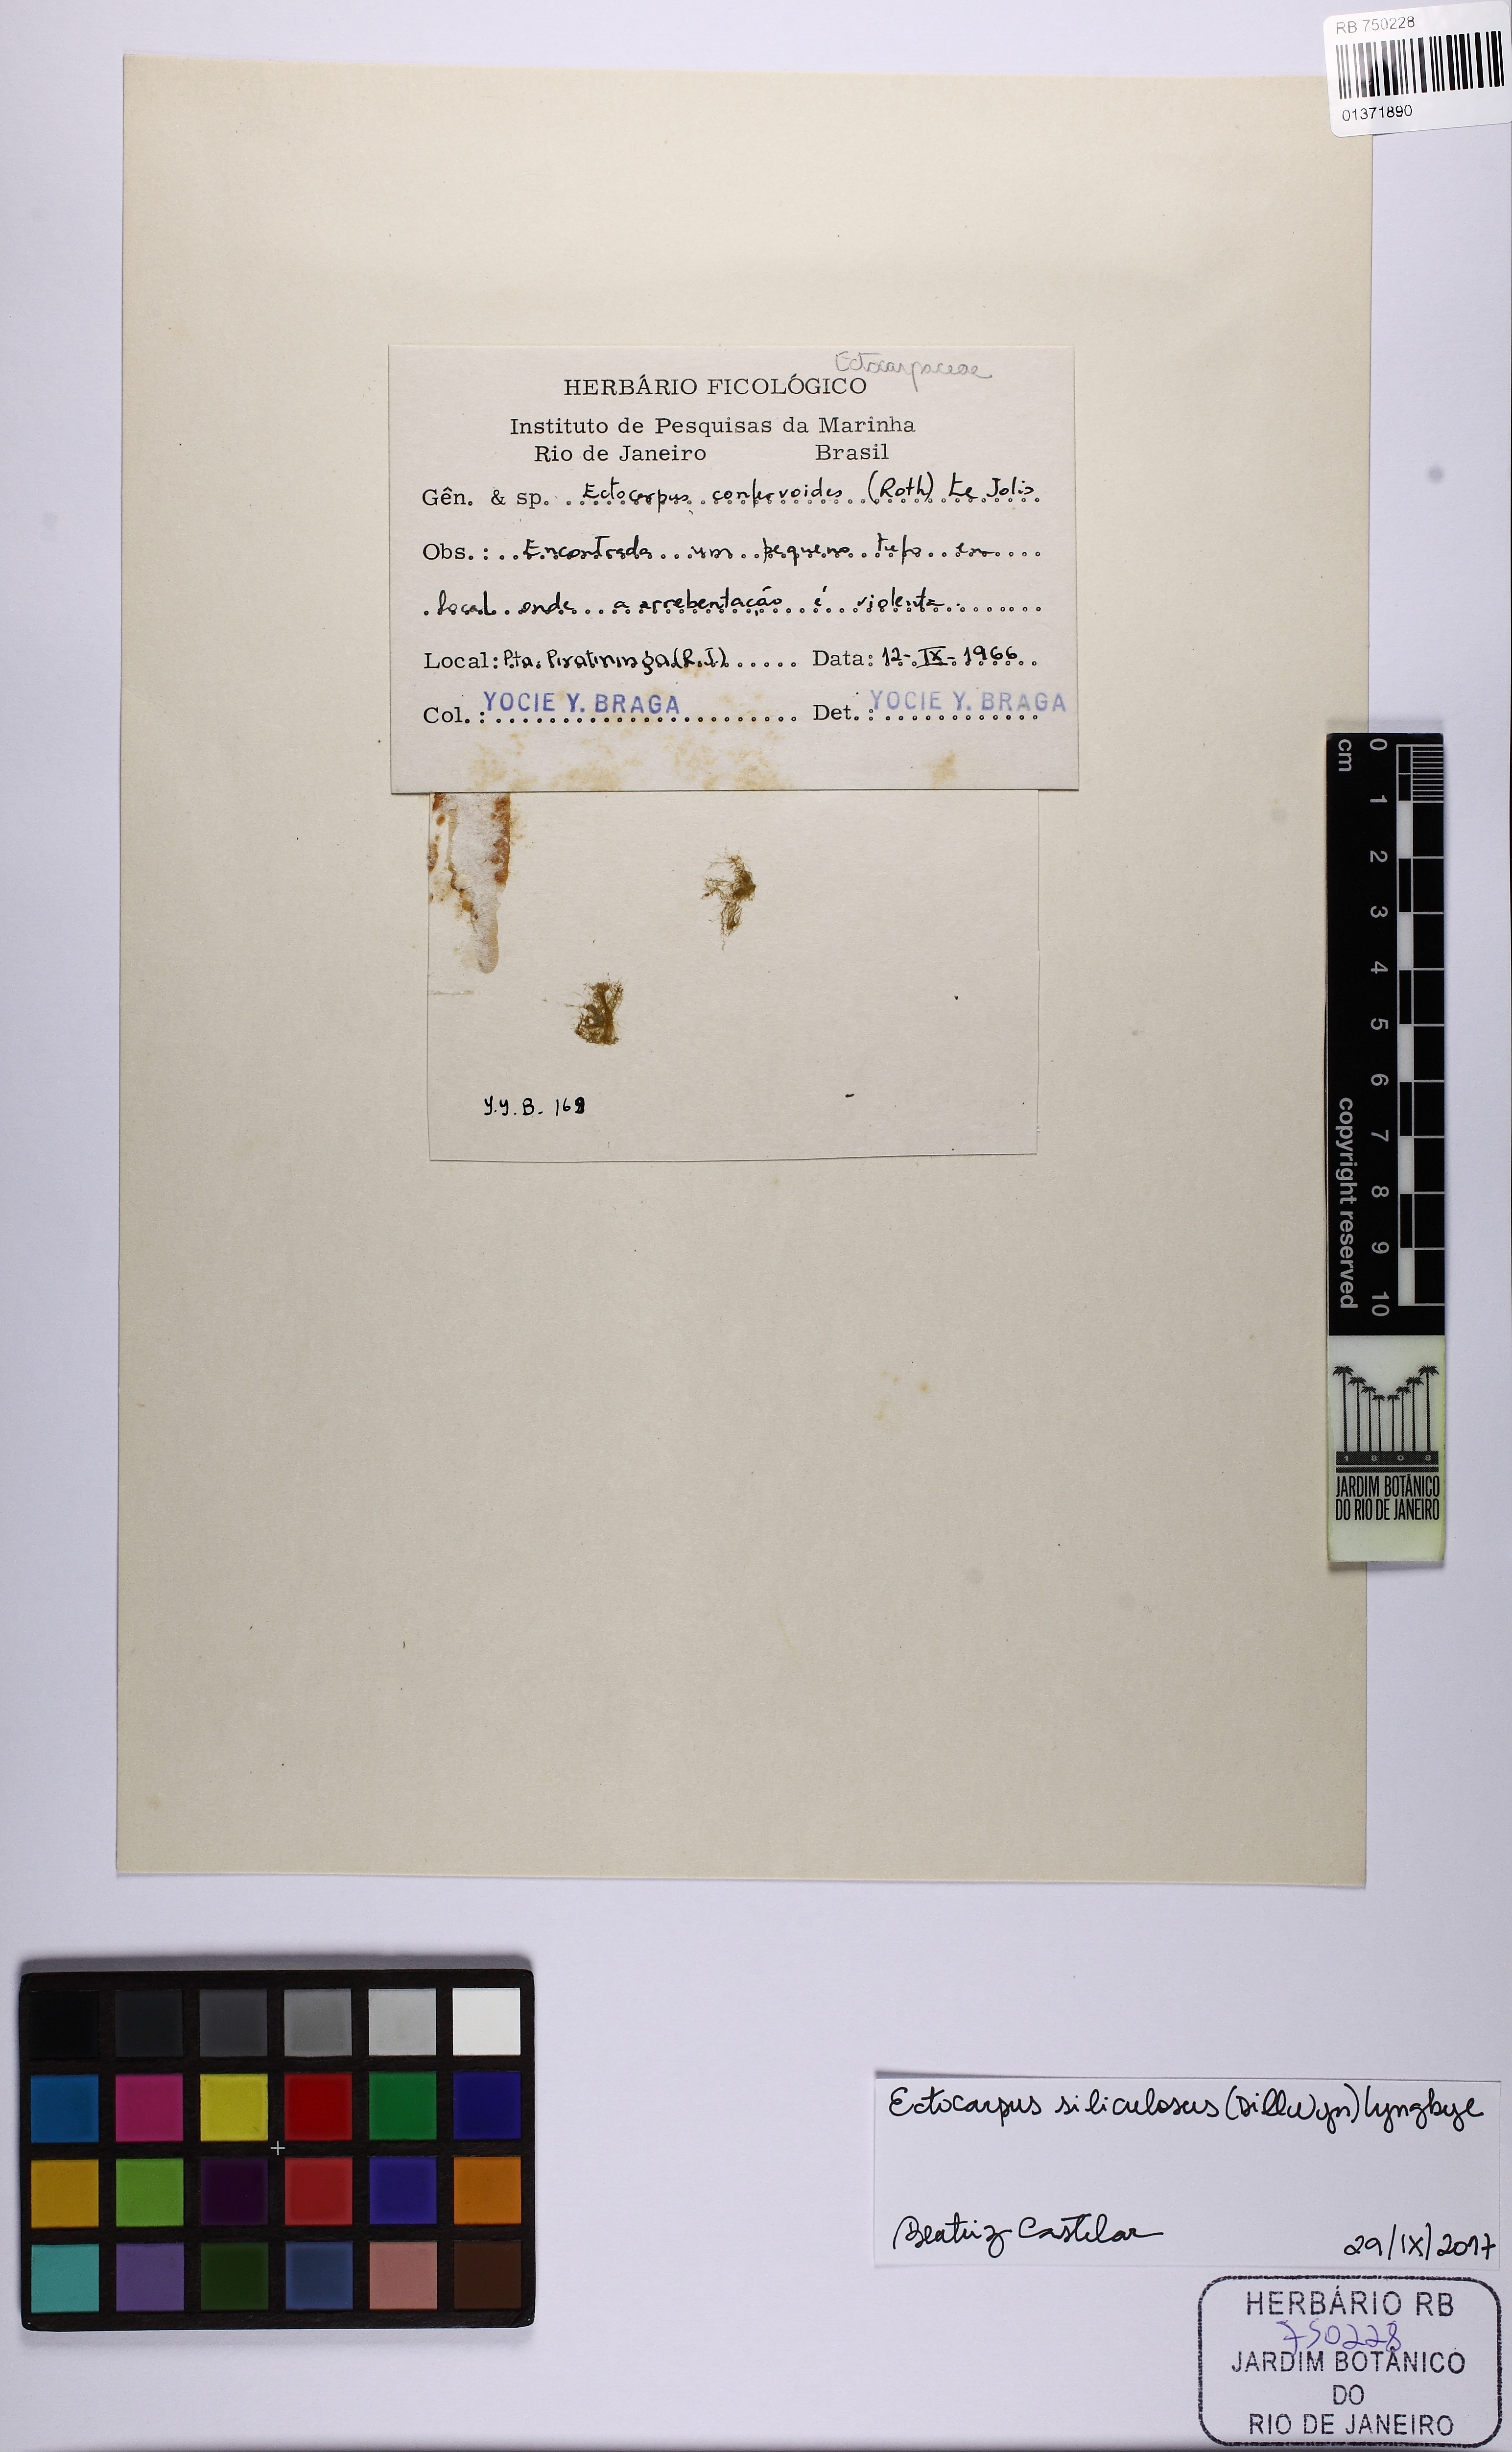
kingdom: Chromista
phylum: Ochrophyta
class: Phaeophyceae
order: Ectocarpales
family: Ectocarpaceae
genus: Ectocarpus
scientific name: Ectocarpus siliculosus
